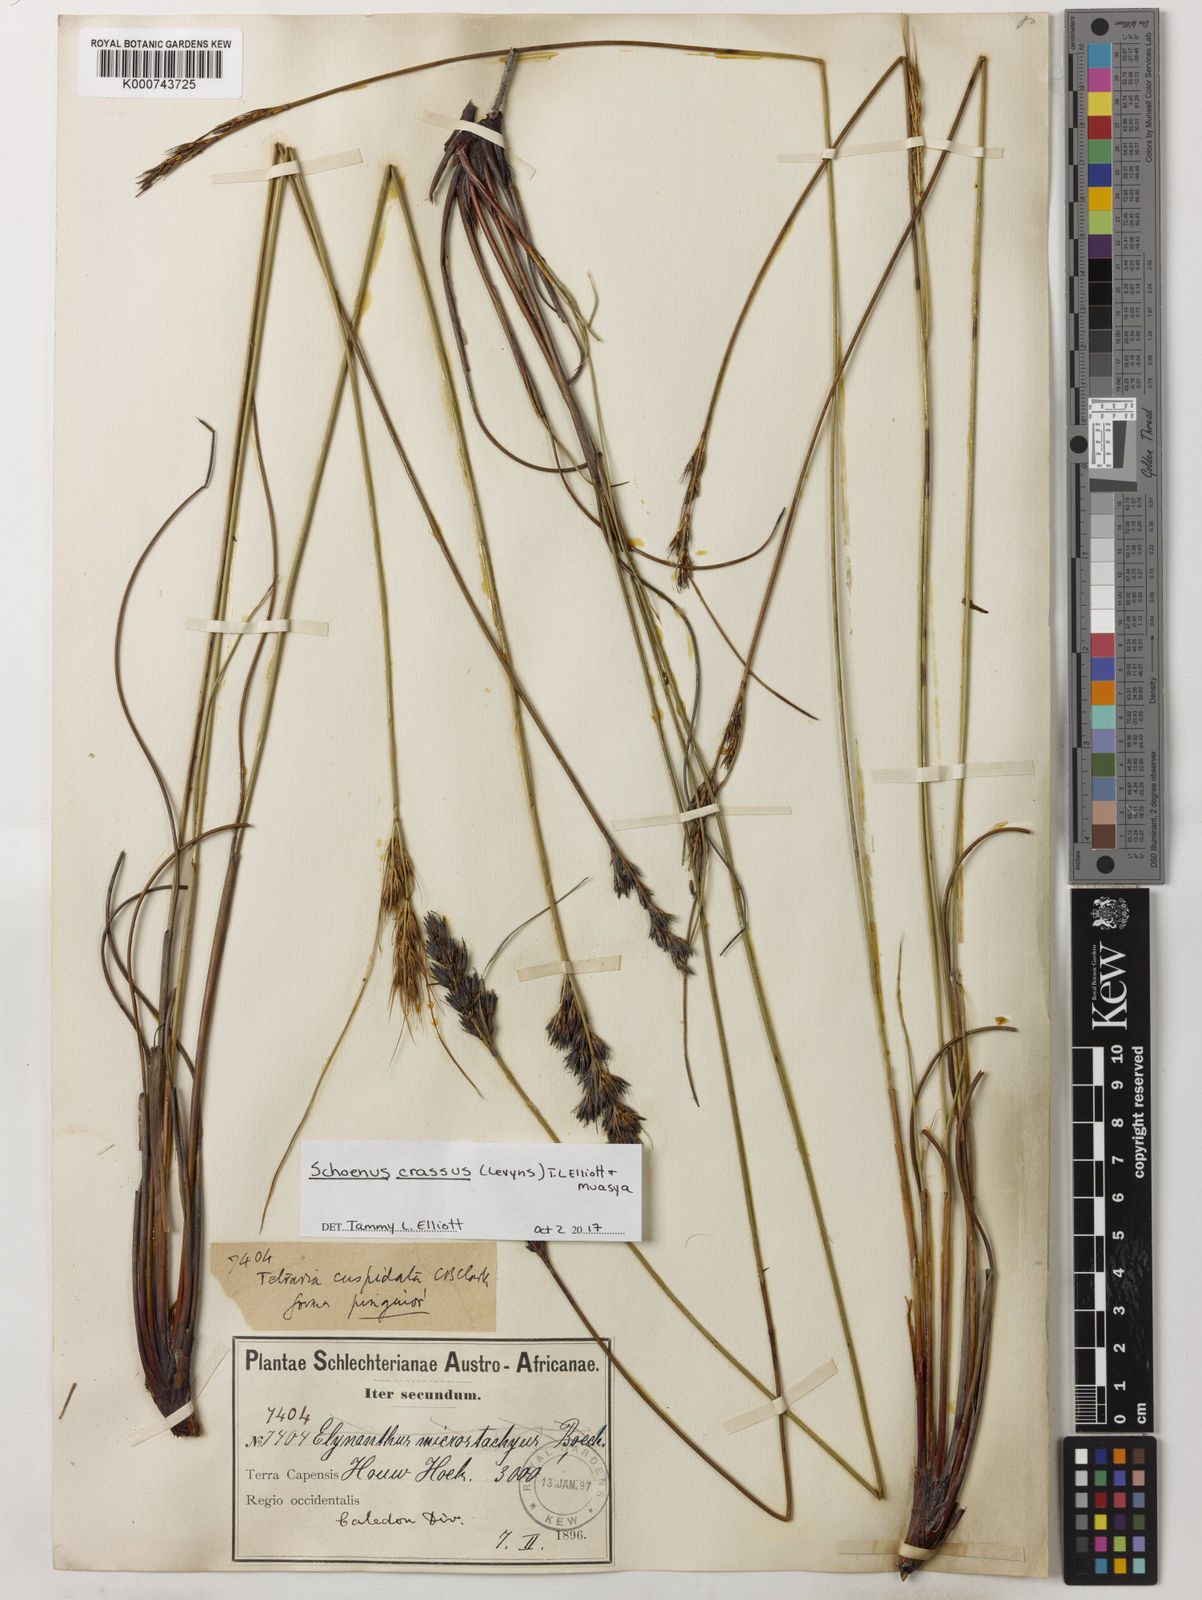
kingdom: Plantae
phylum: Tracheophyta
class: Liliopsida
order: Poales
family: Cyperaceae
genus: Schoenus
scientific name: Schoenus crassus
